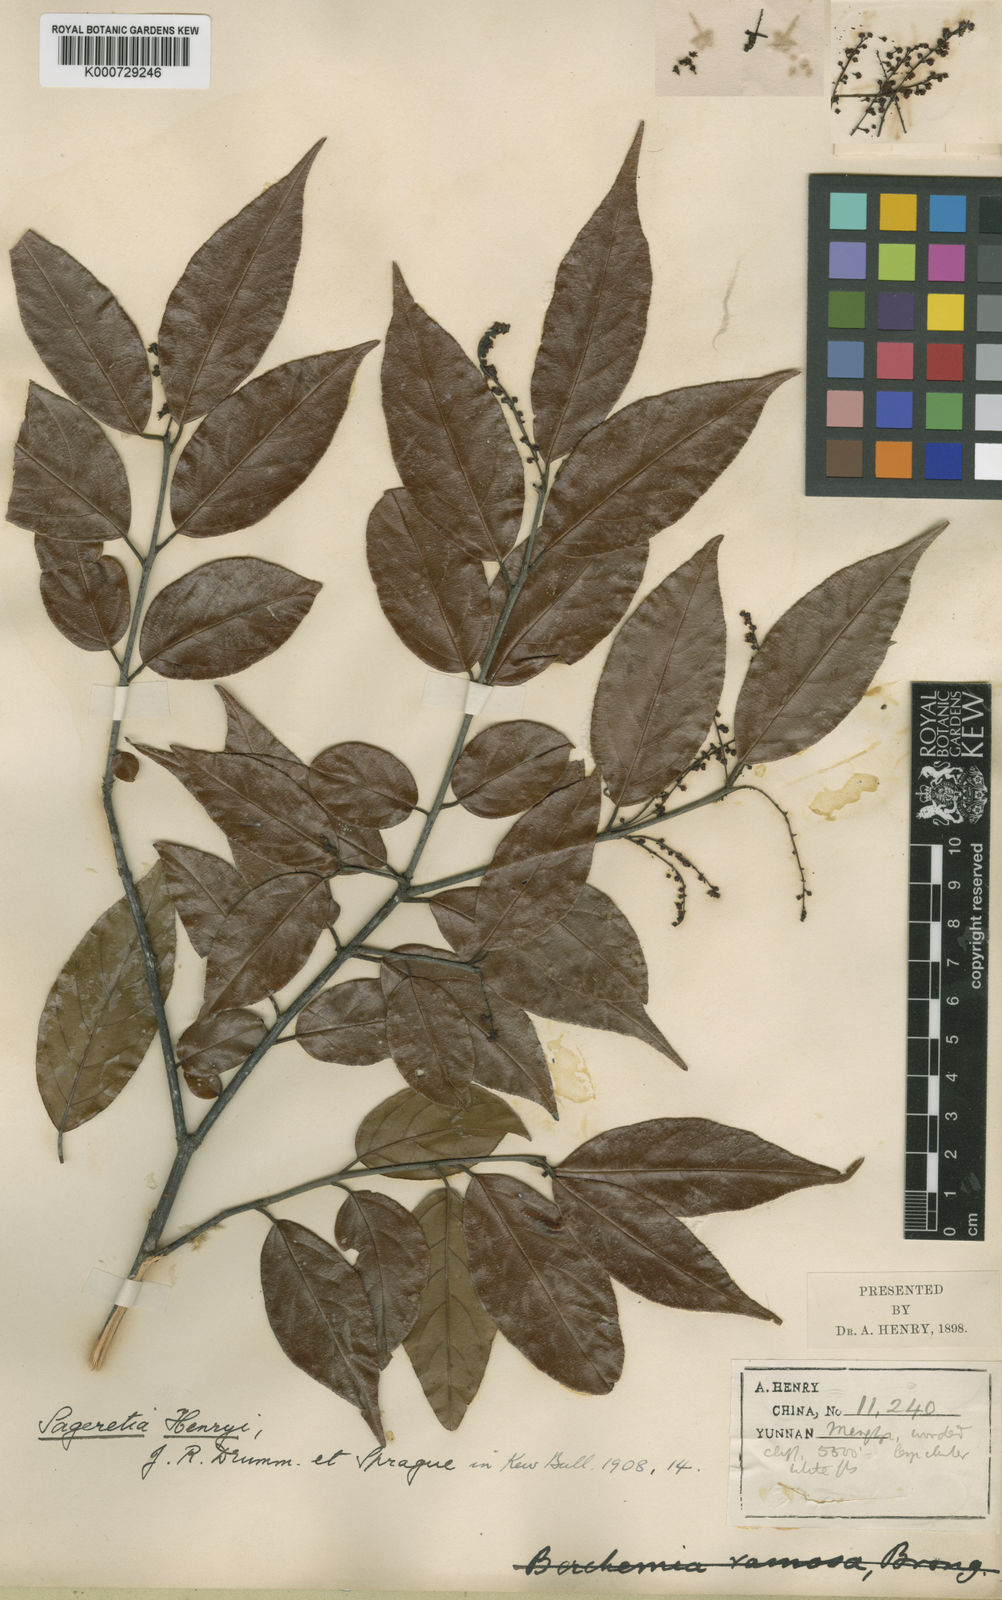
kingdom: Plantae
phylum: Tracheophyta
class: Magnoliopsida
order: Rosales
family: Rhamnaceae
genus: Sageretia
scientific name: Sageretia henryi
